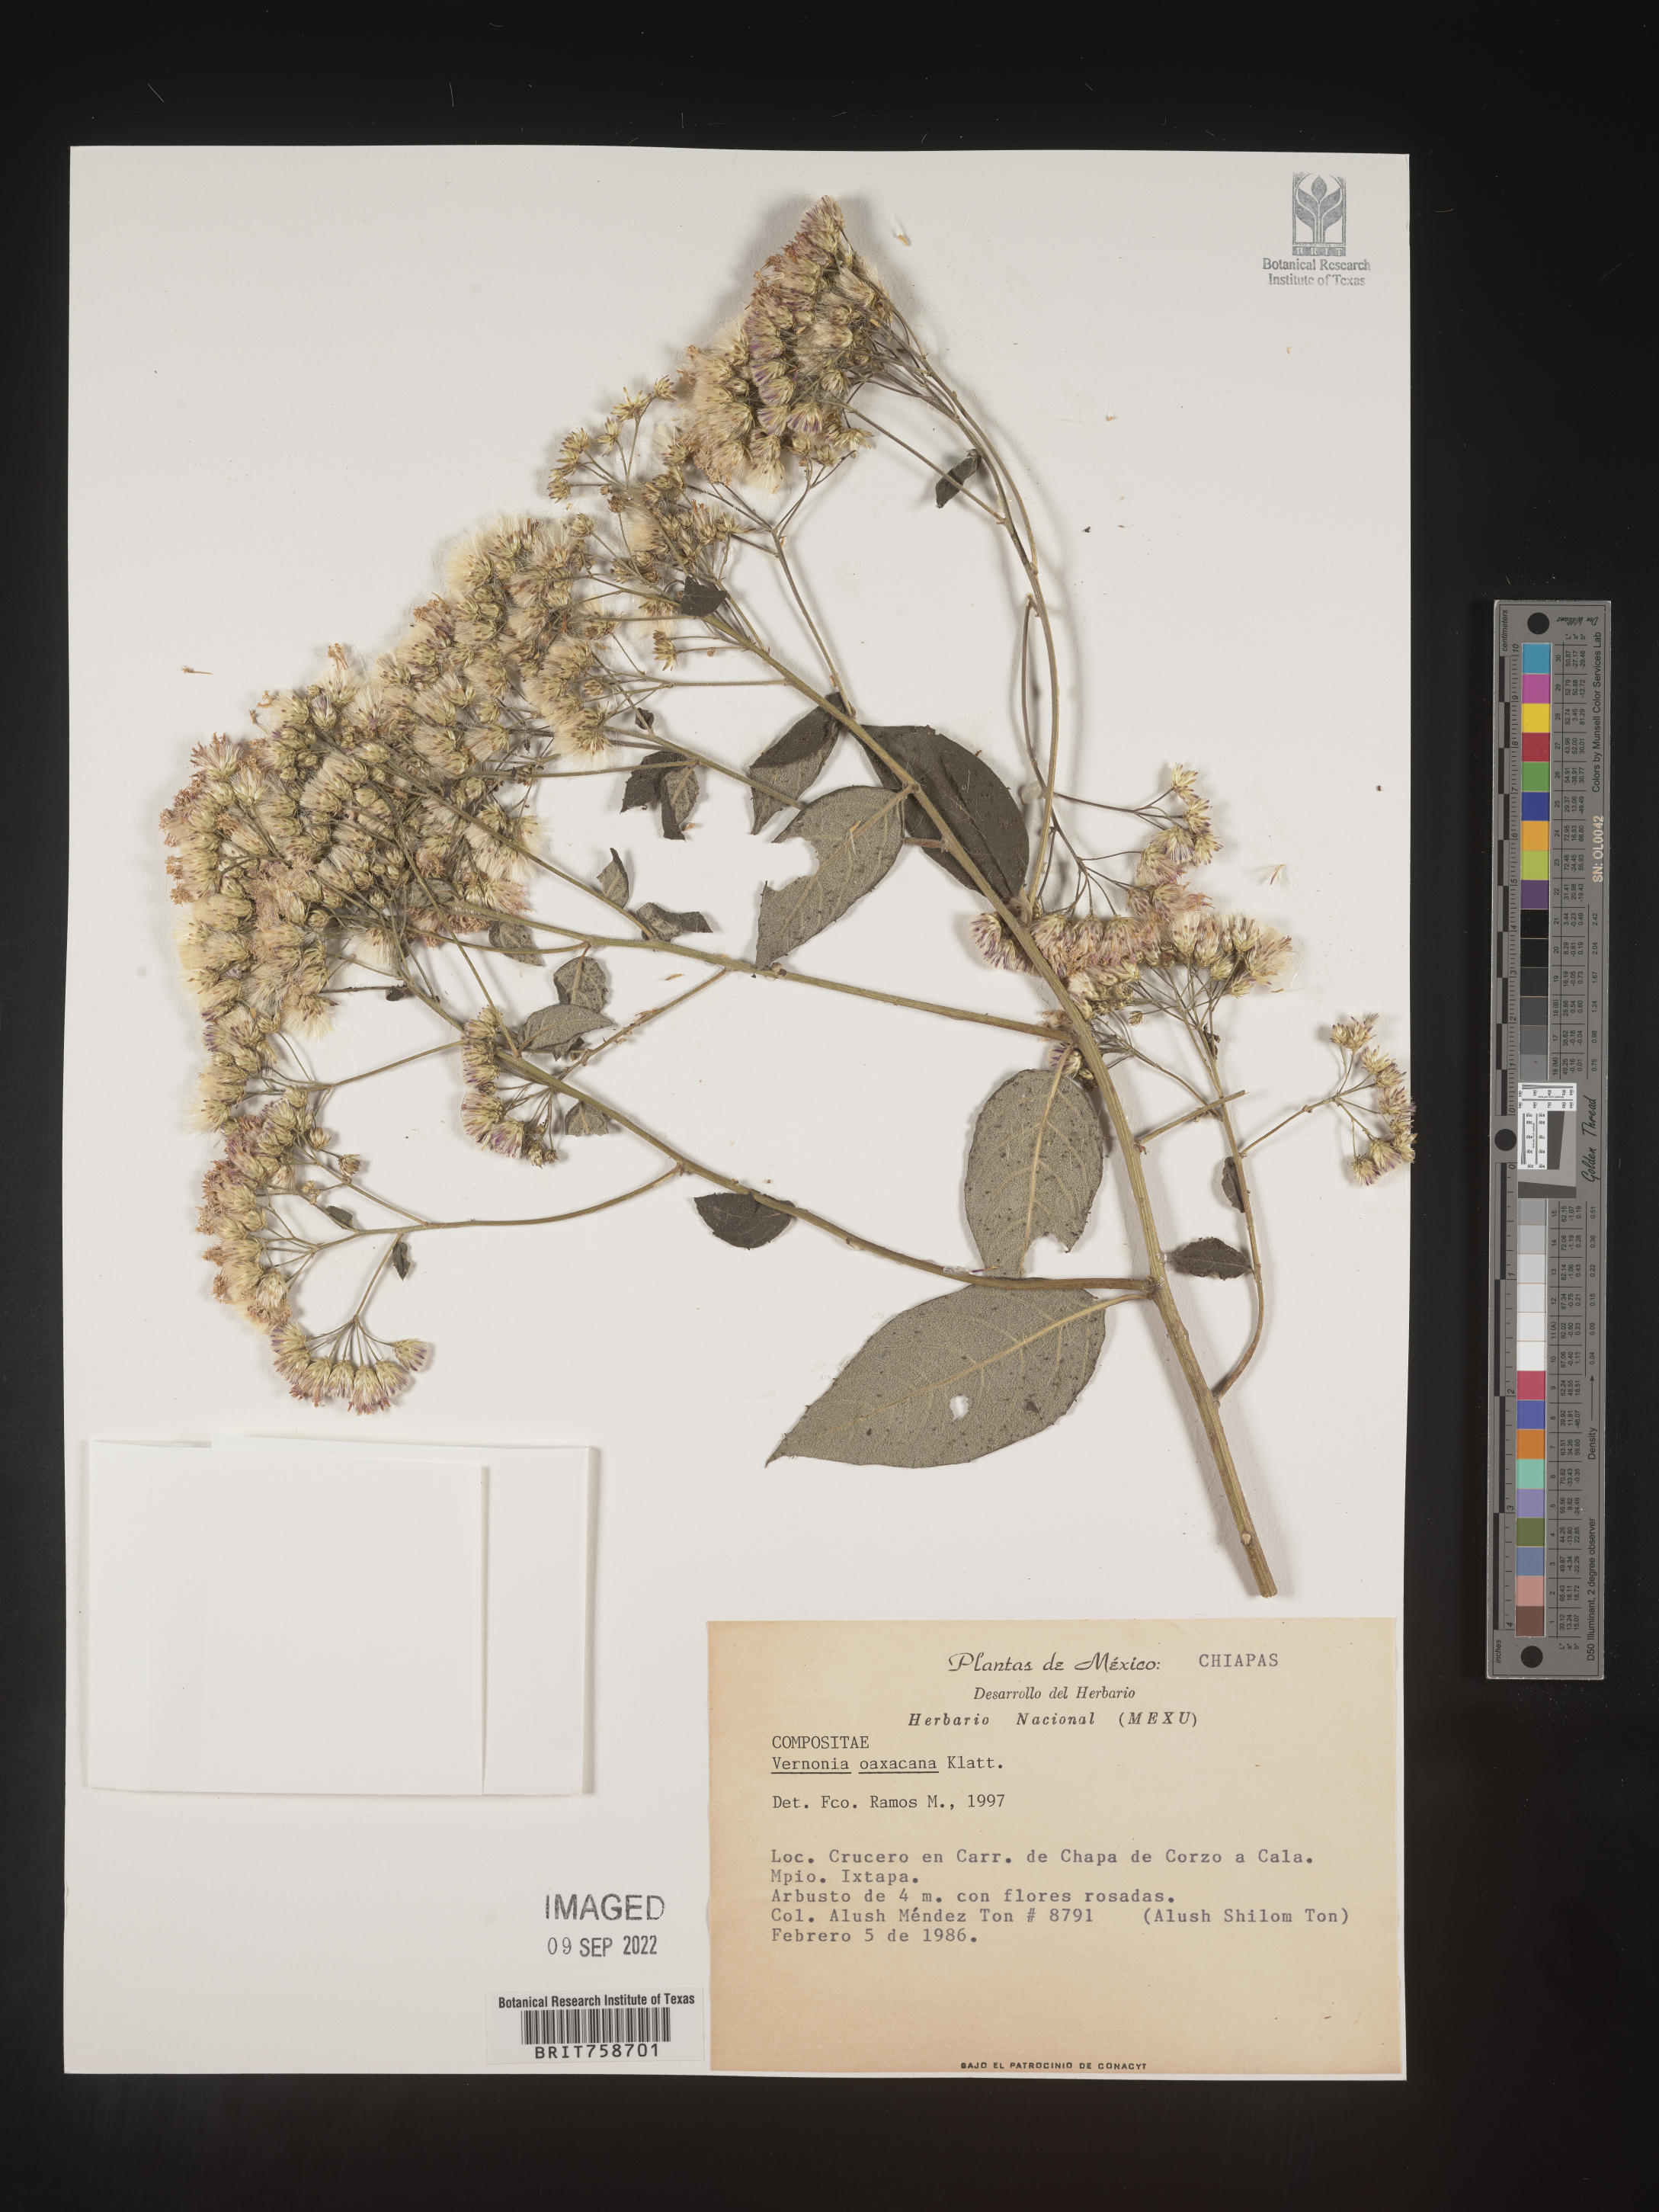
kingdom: Plantae
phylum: Tracheophyta
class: Magnoliopsida
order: Asterales
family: Asteraceae
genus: Vernonia
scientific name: Vernonia
